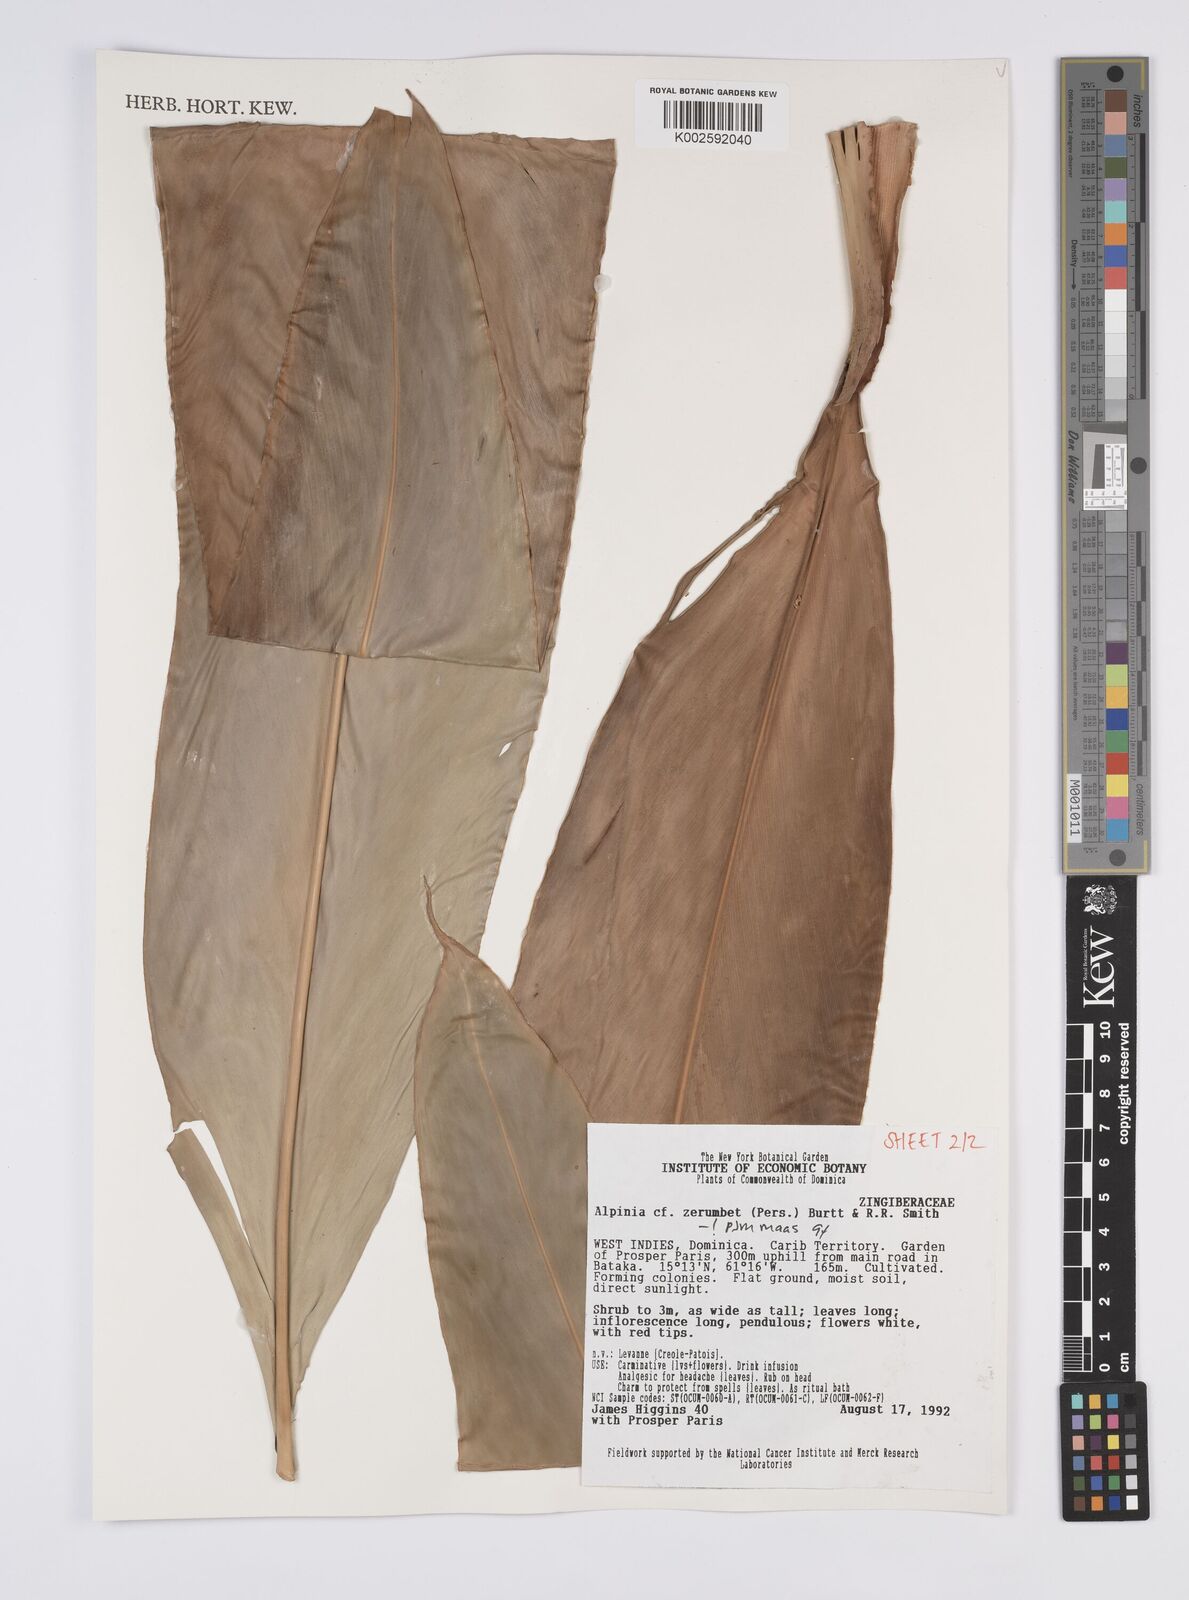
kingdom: Plantae
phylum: Tracheophyta
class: Liliopsida
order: Zingiberales
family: Zingiberaceae
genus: Alpinia
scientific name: Alpinia zerumbet
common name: Shellplant
